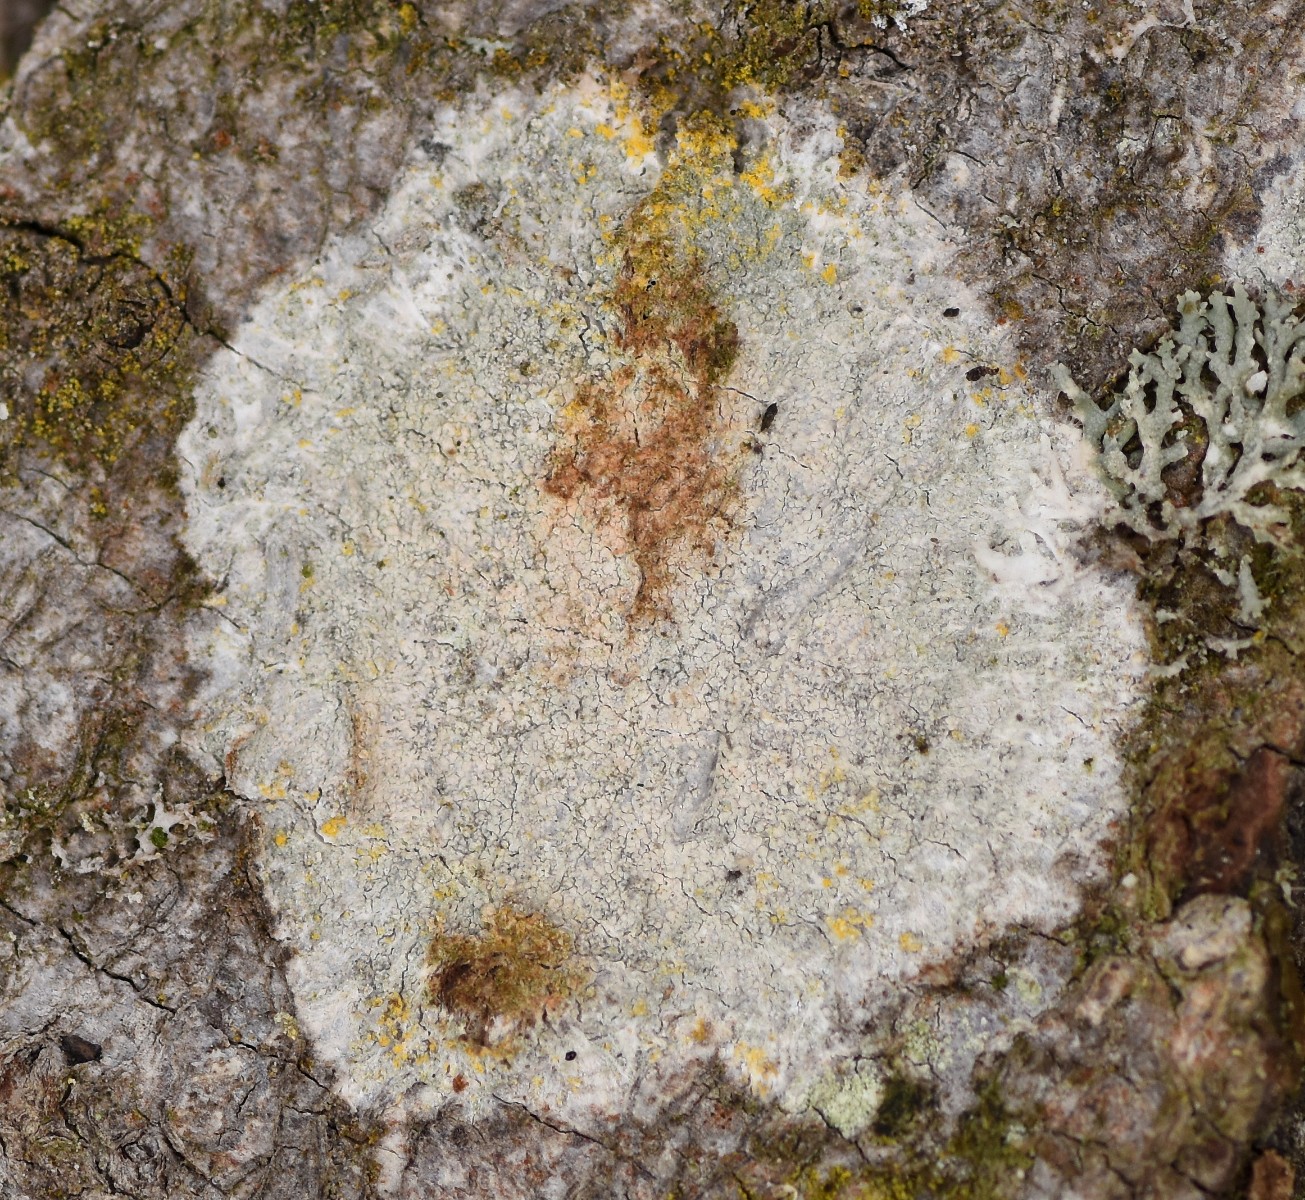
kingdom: Fungi
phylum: Ascomycota
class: Lecanoromycetes
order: Ostropales
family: Phlyctidaceae
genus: Phlyctis
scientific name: Phlyctis argena
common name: almindelig sølvlav
